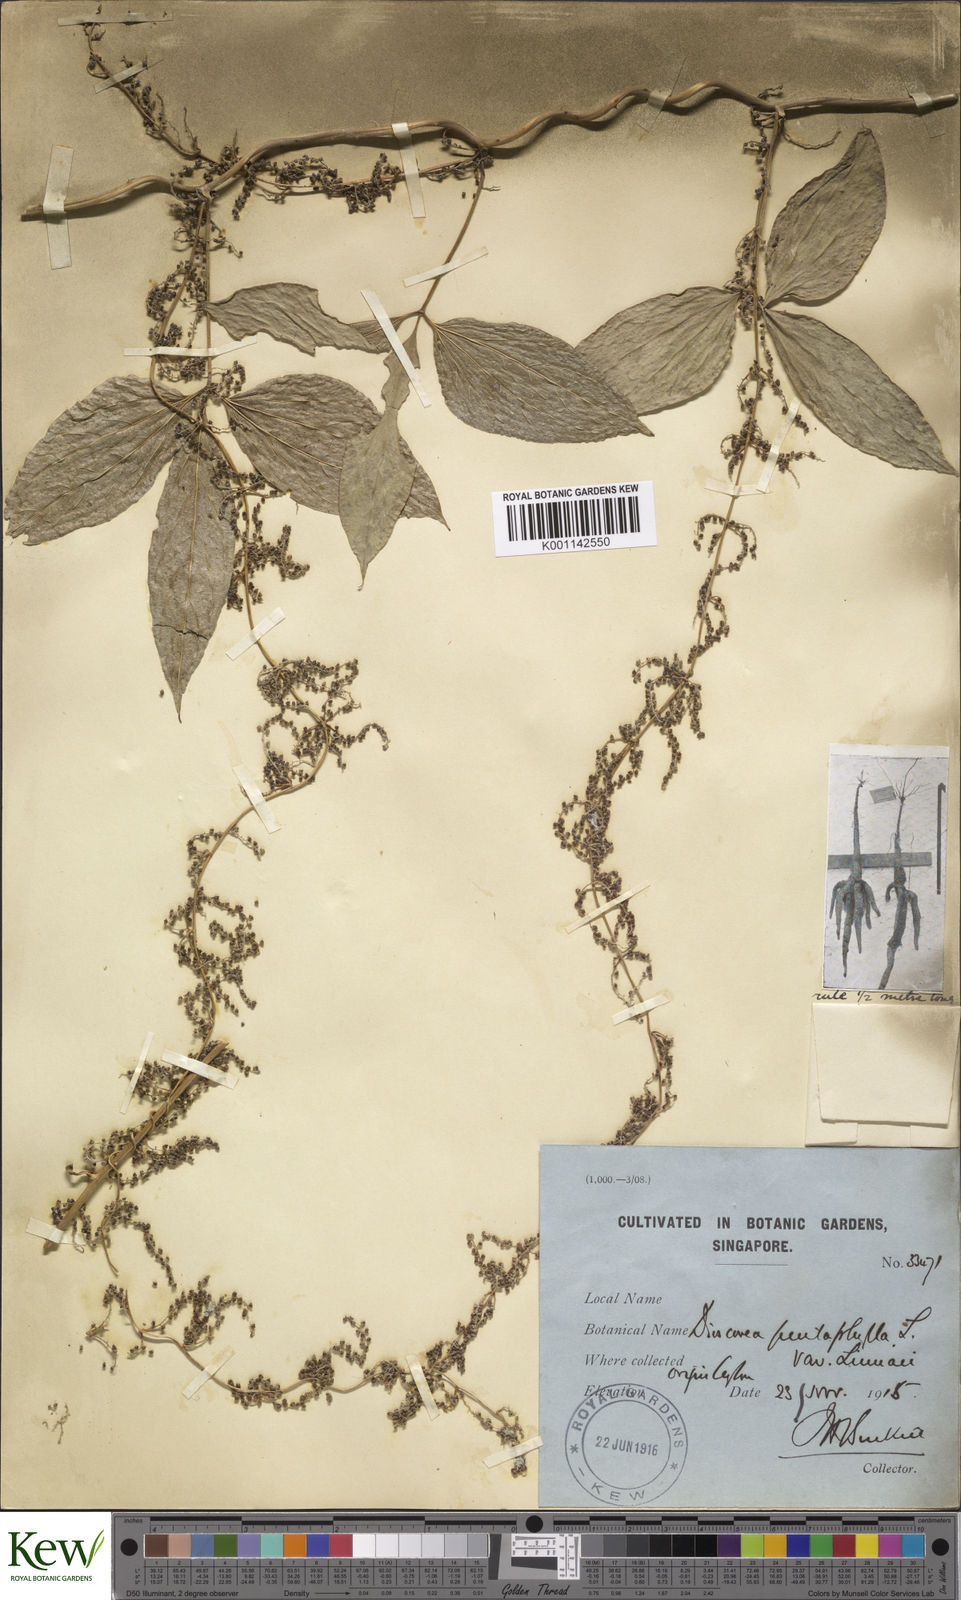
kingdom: Plantae
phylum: Tracheophyta
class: Liliopsida
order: Dioscoreales
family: Dioscoreaceae
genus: Dioscorea
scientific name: Dioscorea pentaphylla
